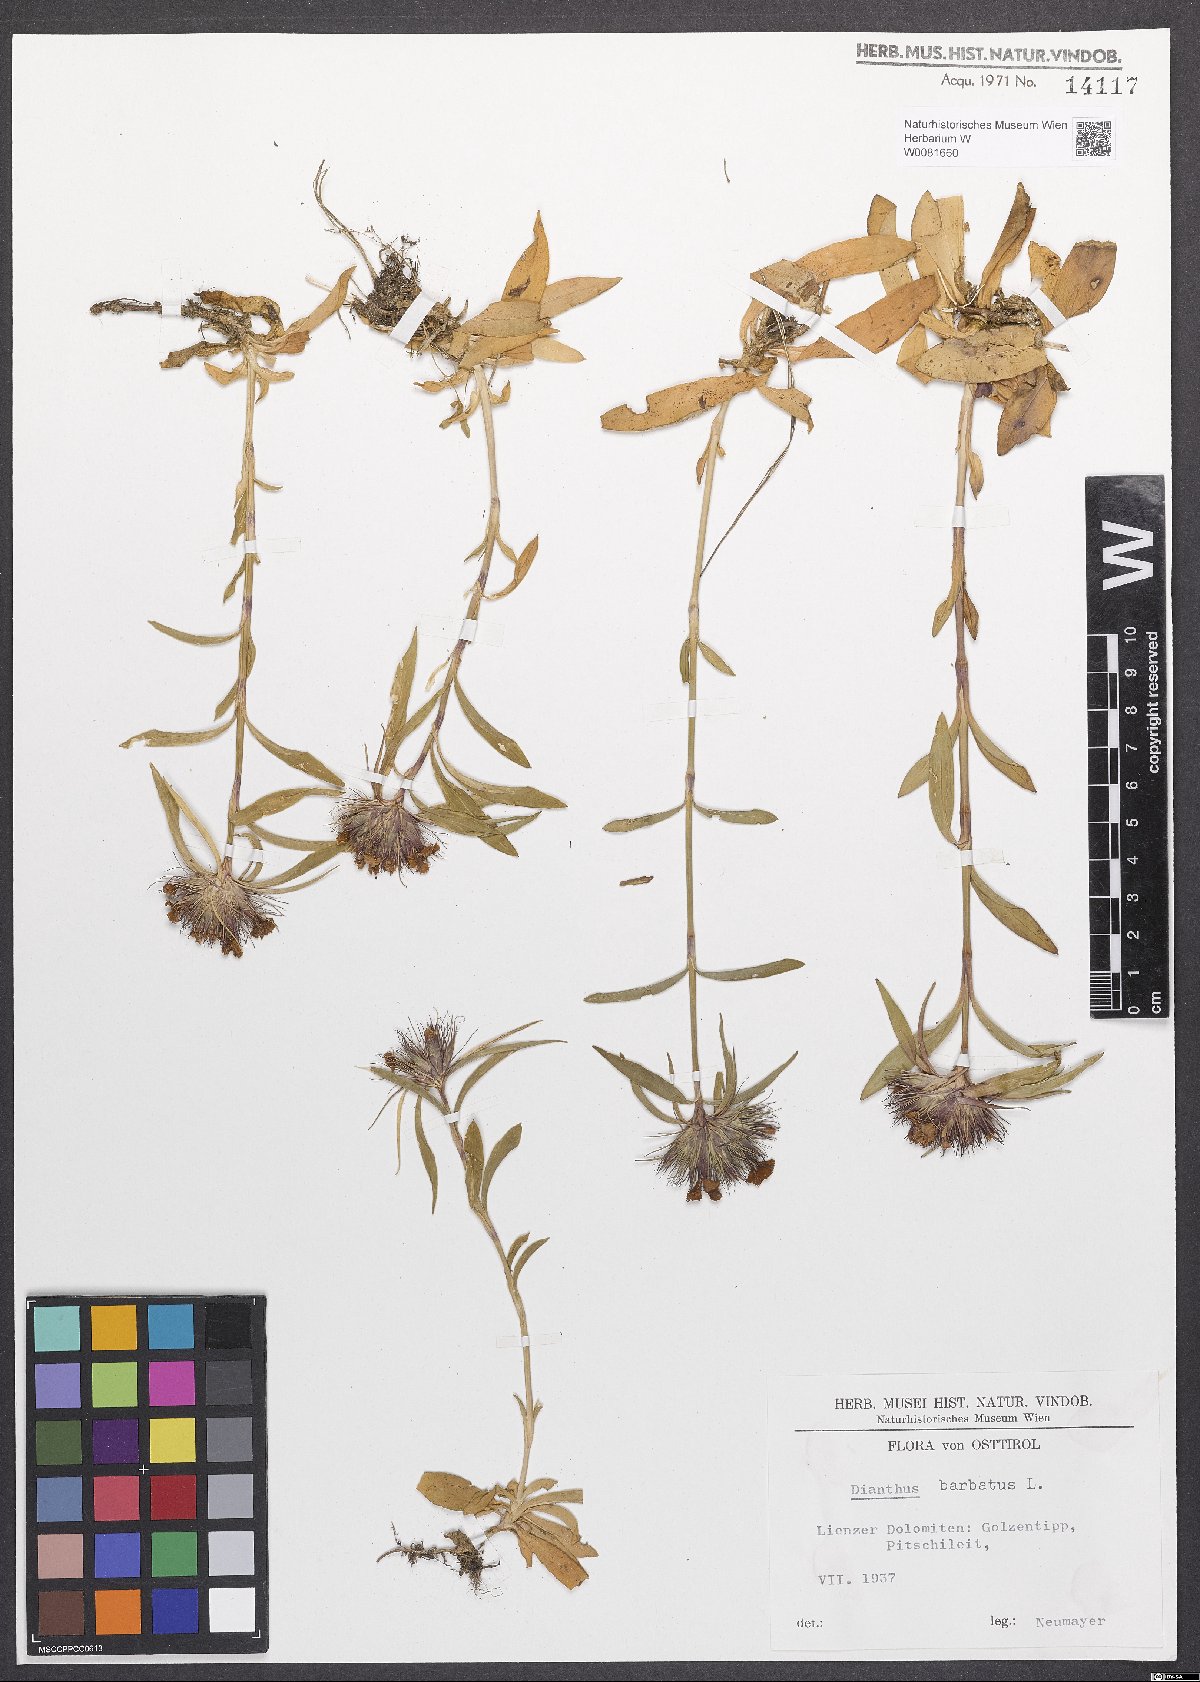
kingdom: Plantae
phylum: Tracheophyta
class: Magnoliopsida
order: Caryophyllales
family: Caryophyllaceae
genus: Dianthus
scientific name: Dianthus barbatus
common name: Sweet-william
